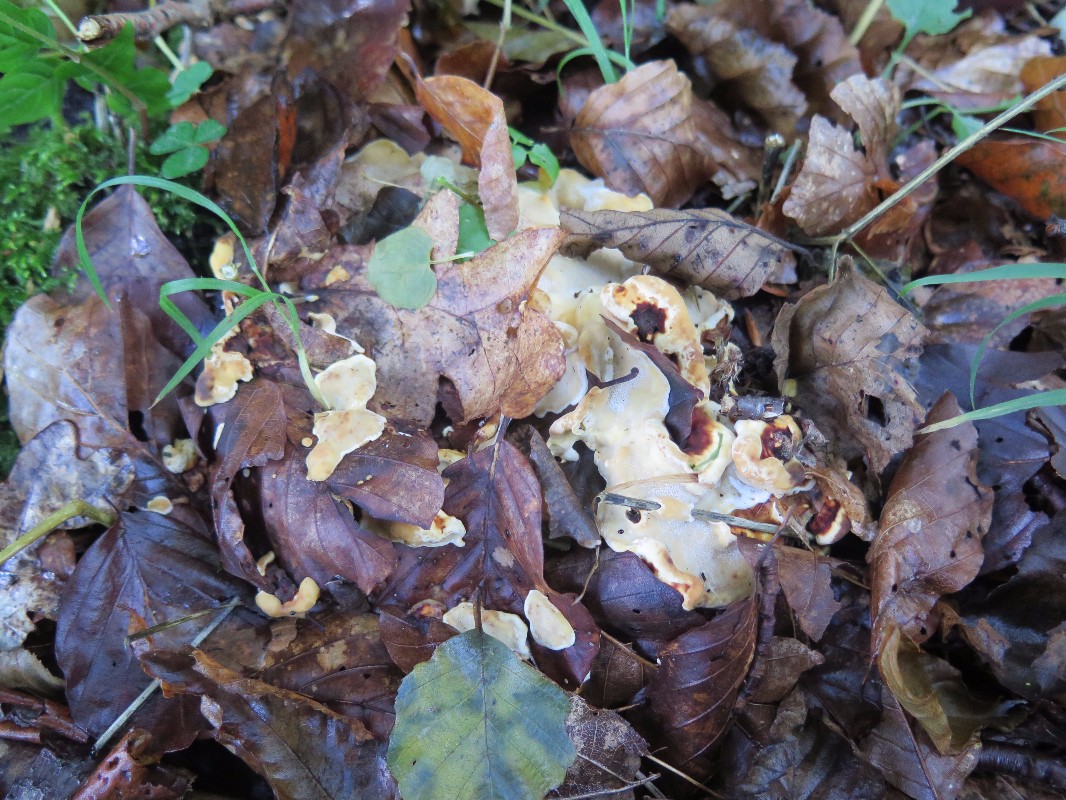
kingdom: Fungi
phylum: Basidiomycota
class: Agaricomycetes
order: Polyporales
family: Steccherinaceae
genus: Loweomyces
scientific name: Loweomyces wynneae
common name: krybende blødporesvamp
